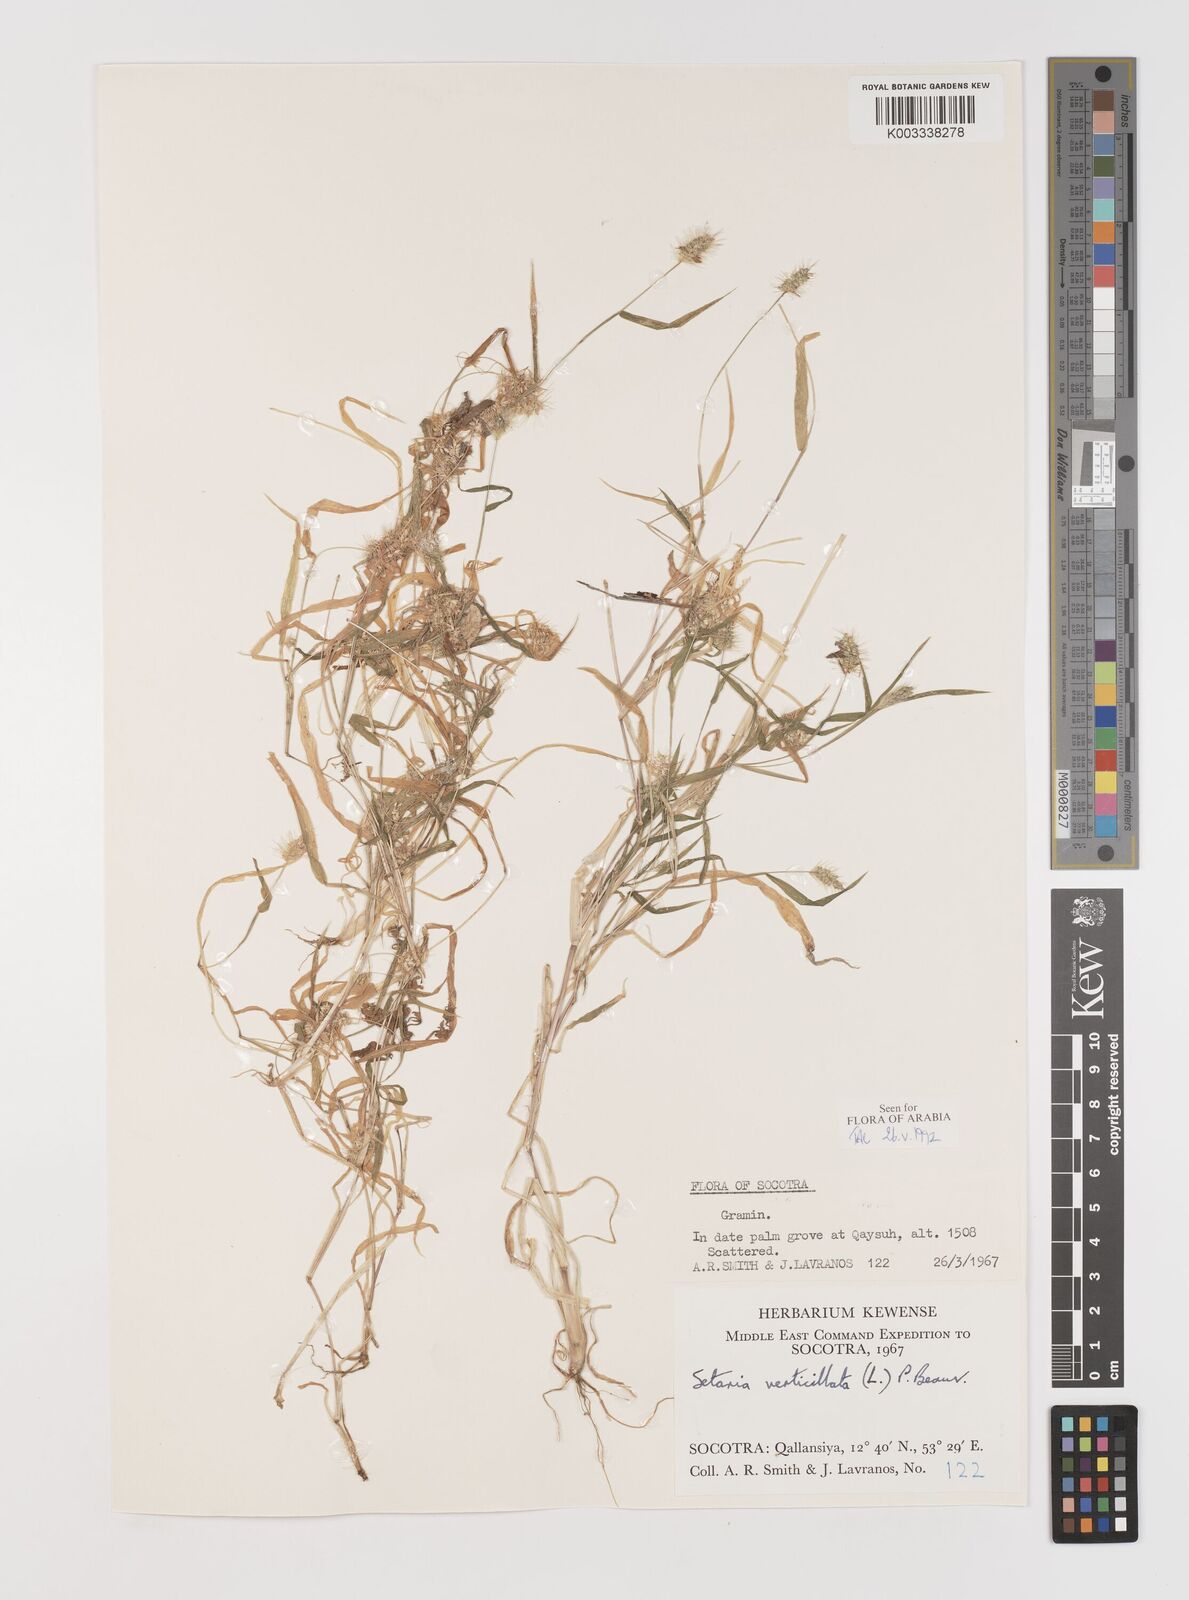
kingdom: Plantae
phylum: Tracheophyta
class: Liliopsida
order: Poales
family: Poaceae
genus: Setaria
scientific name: Setaria verticillata
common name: Hooked bristlegrass
